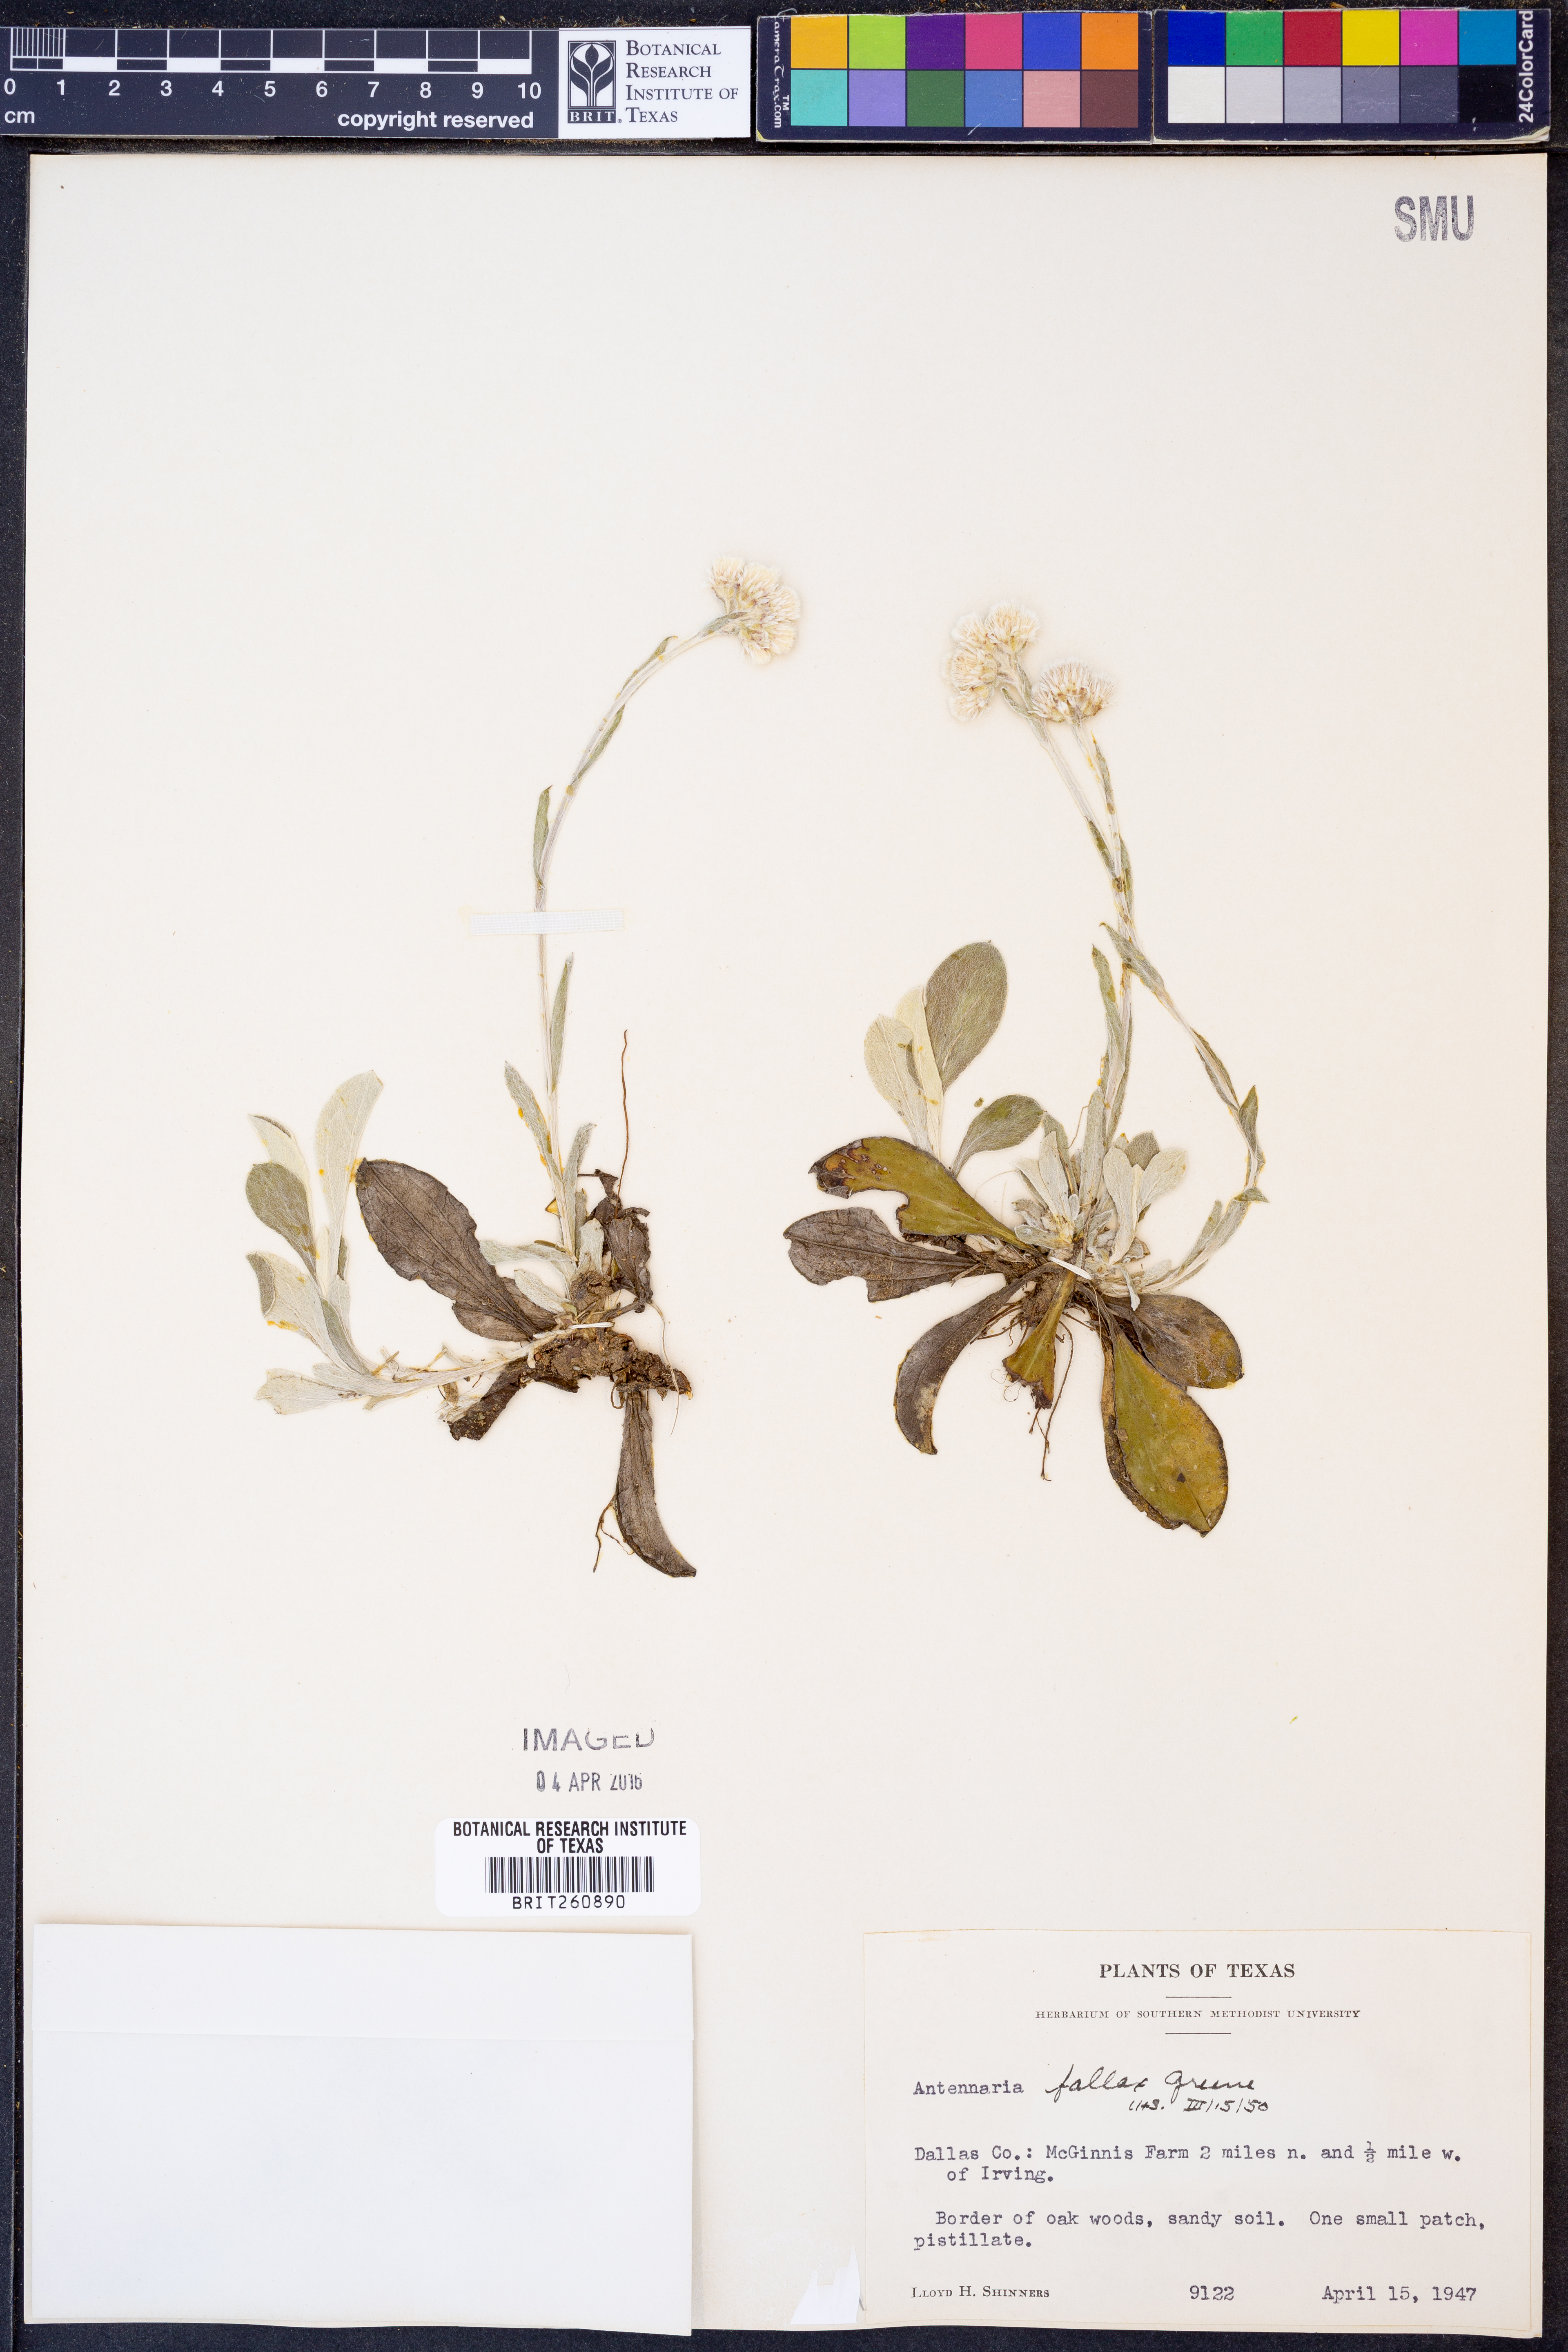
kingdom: Plantae
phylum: Tracheophyta
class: Magnoliopsida
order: Asterales
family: Asteraceae
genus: Antennaria
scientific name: Antennaria parlinii
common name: Parlin's pussytoes
